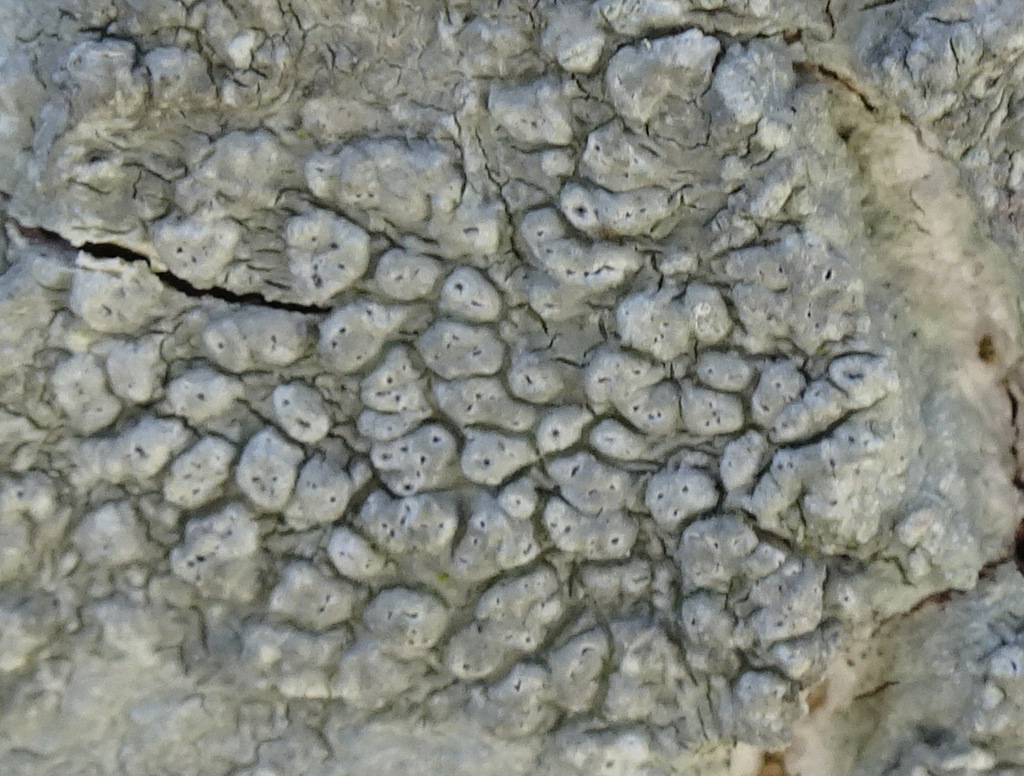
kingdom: Fungi
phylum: Ascomycota
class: Lecanoromycetes
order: Pertusariales
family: Pertusariaceae
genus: Pertusaria
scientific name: Pertusaria pertusa
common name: almindelig prikvortelav
